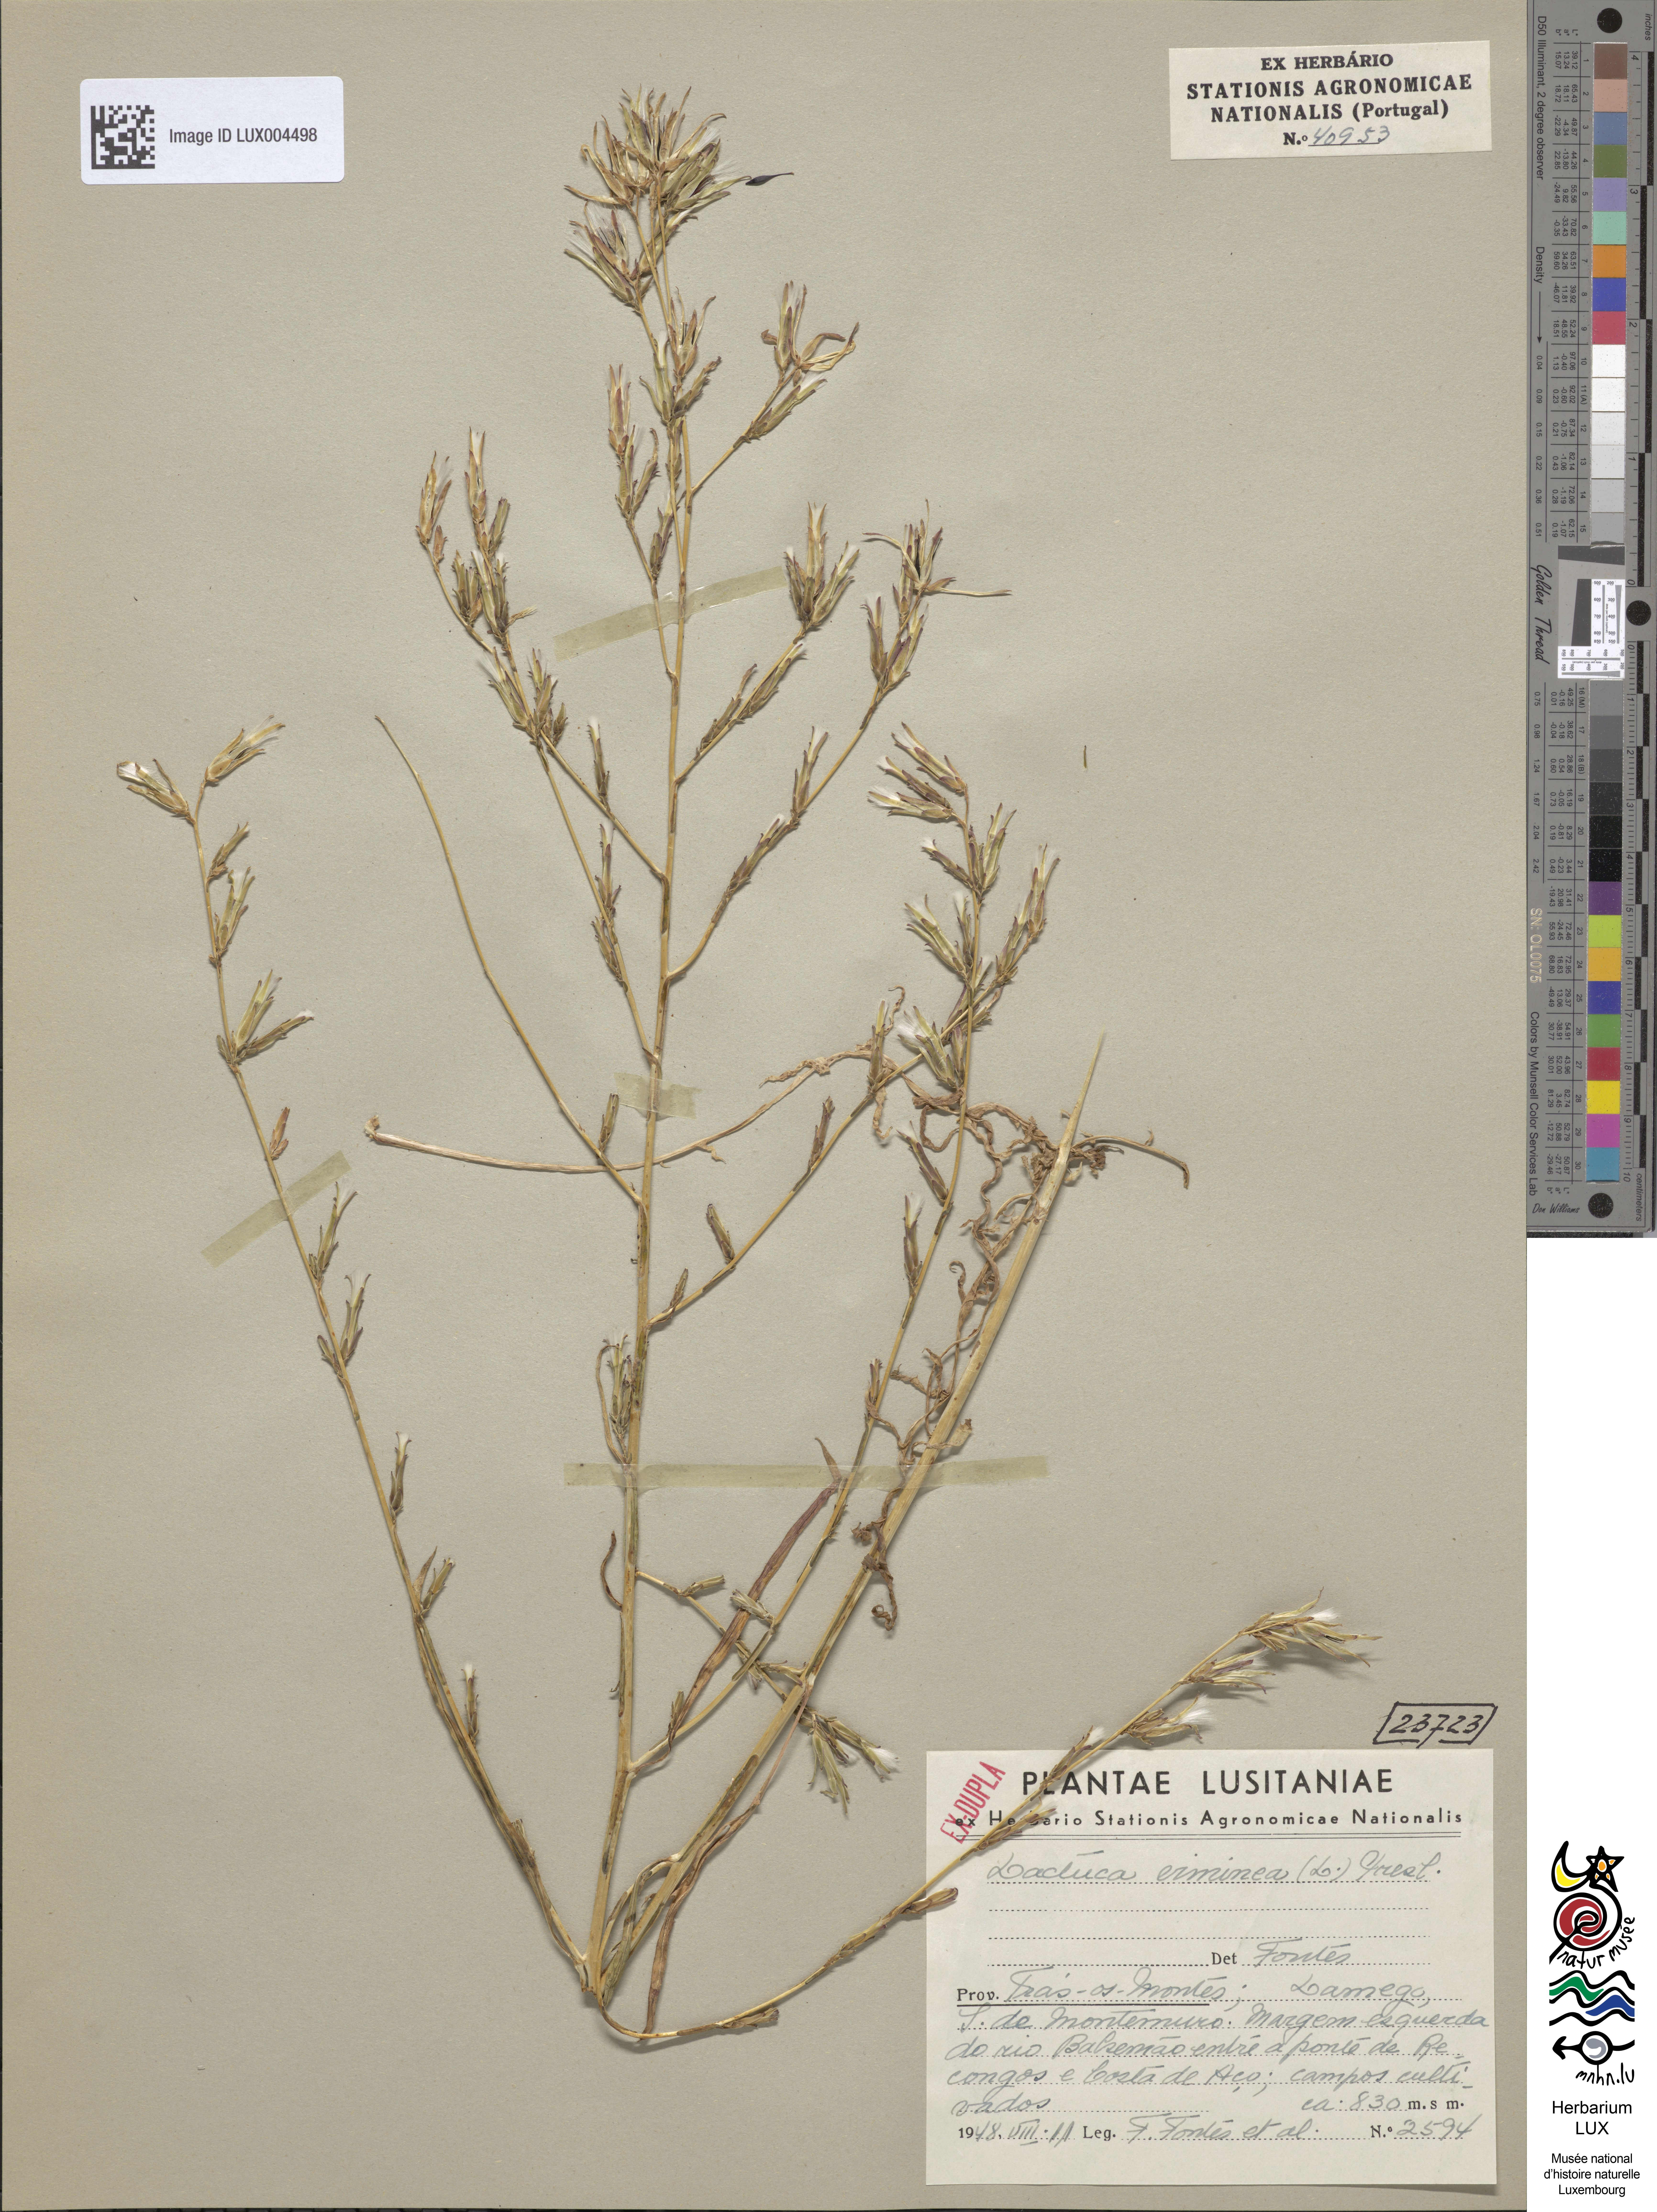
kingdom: Plantae
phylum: Tracheophyta
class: Magnoliopsida
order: Asterales
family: Asteraceae
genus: Lactuca
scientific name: Lactuca viminea
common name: Pliant lettuce
